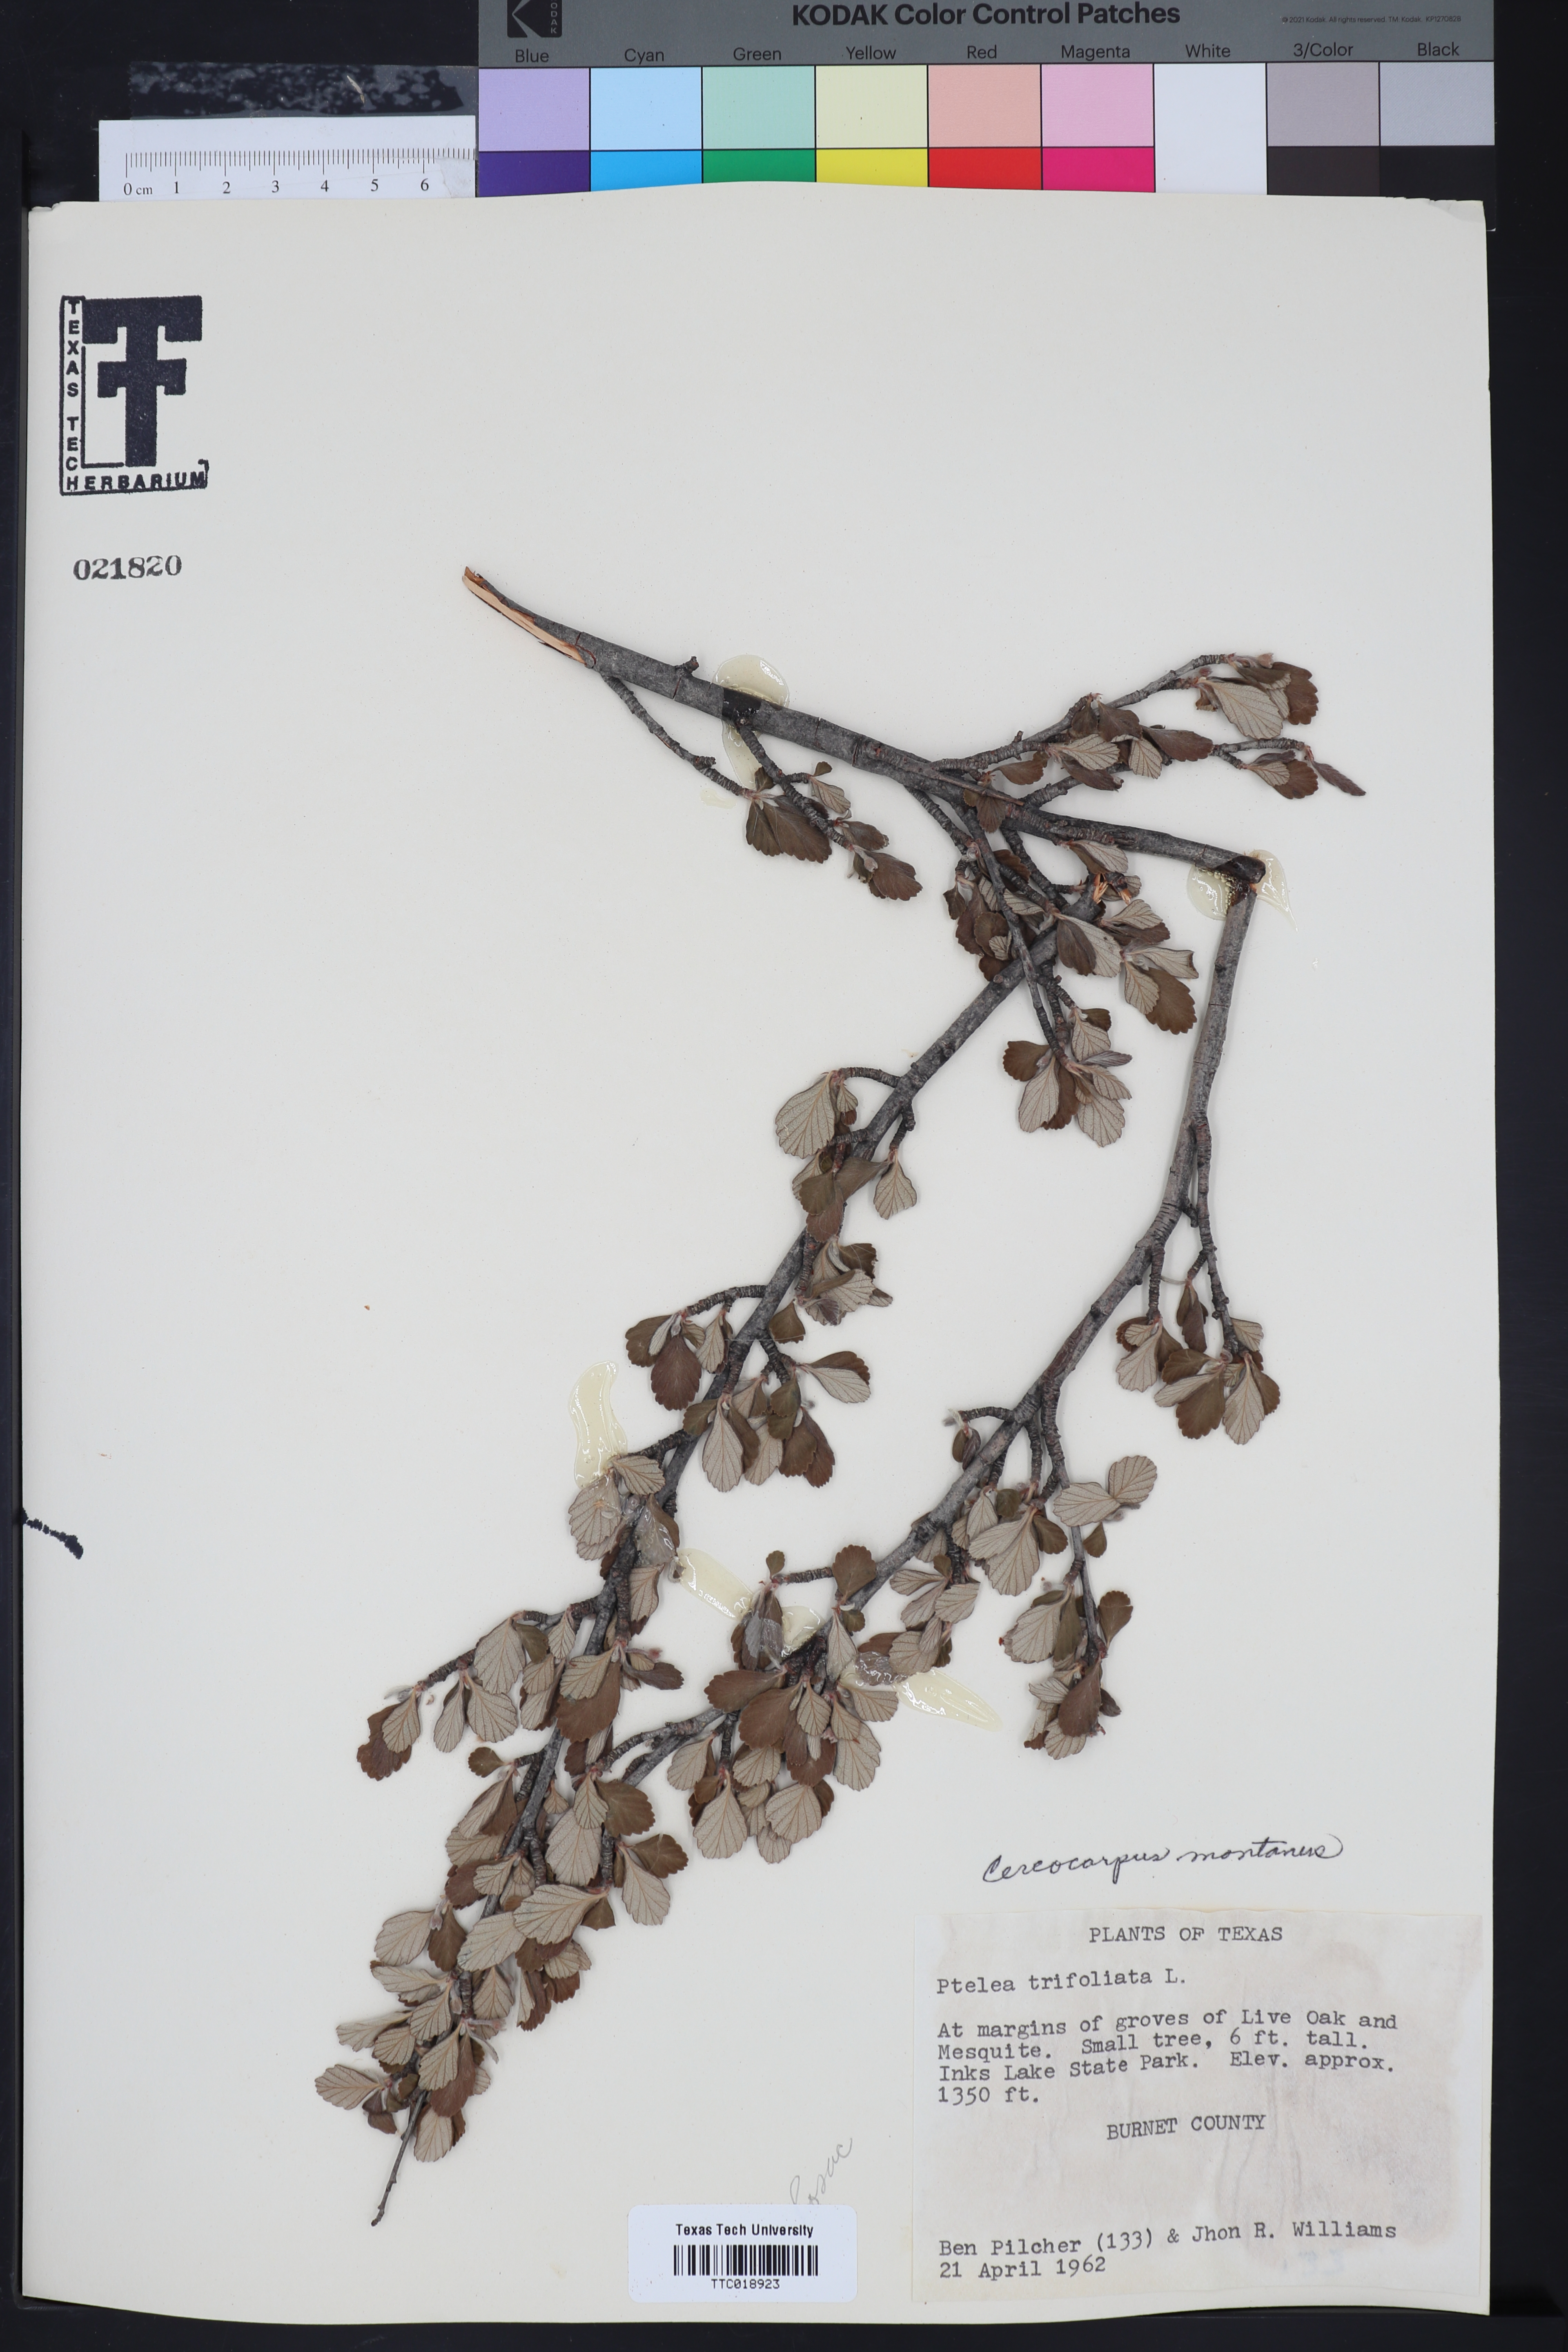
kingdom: Plantae
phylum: Tracheophyta
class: Magnoliopsida
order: Rosales
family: Rosaceae
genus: Cercocarpus
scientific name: Cercocarpus
